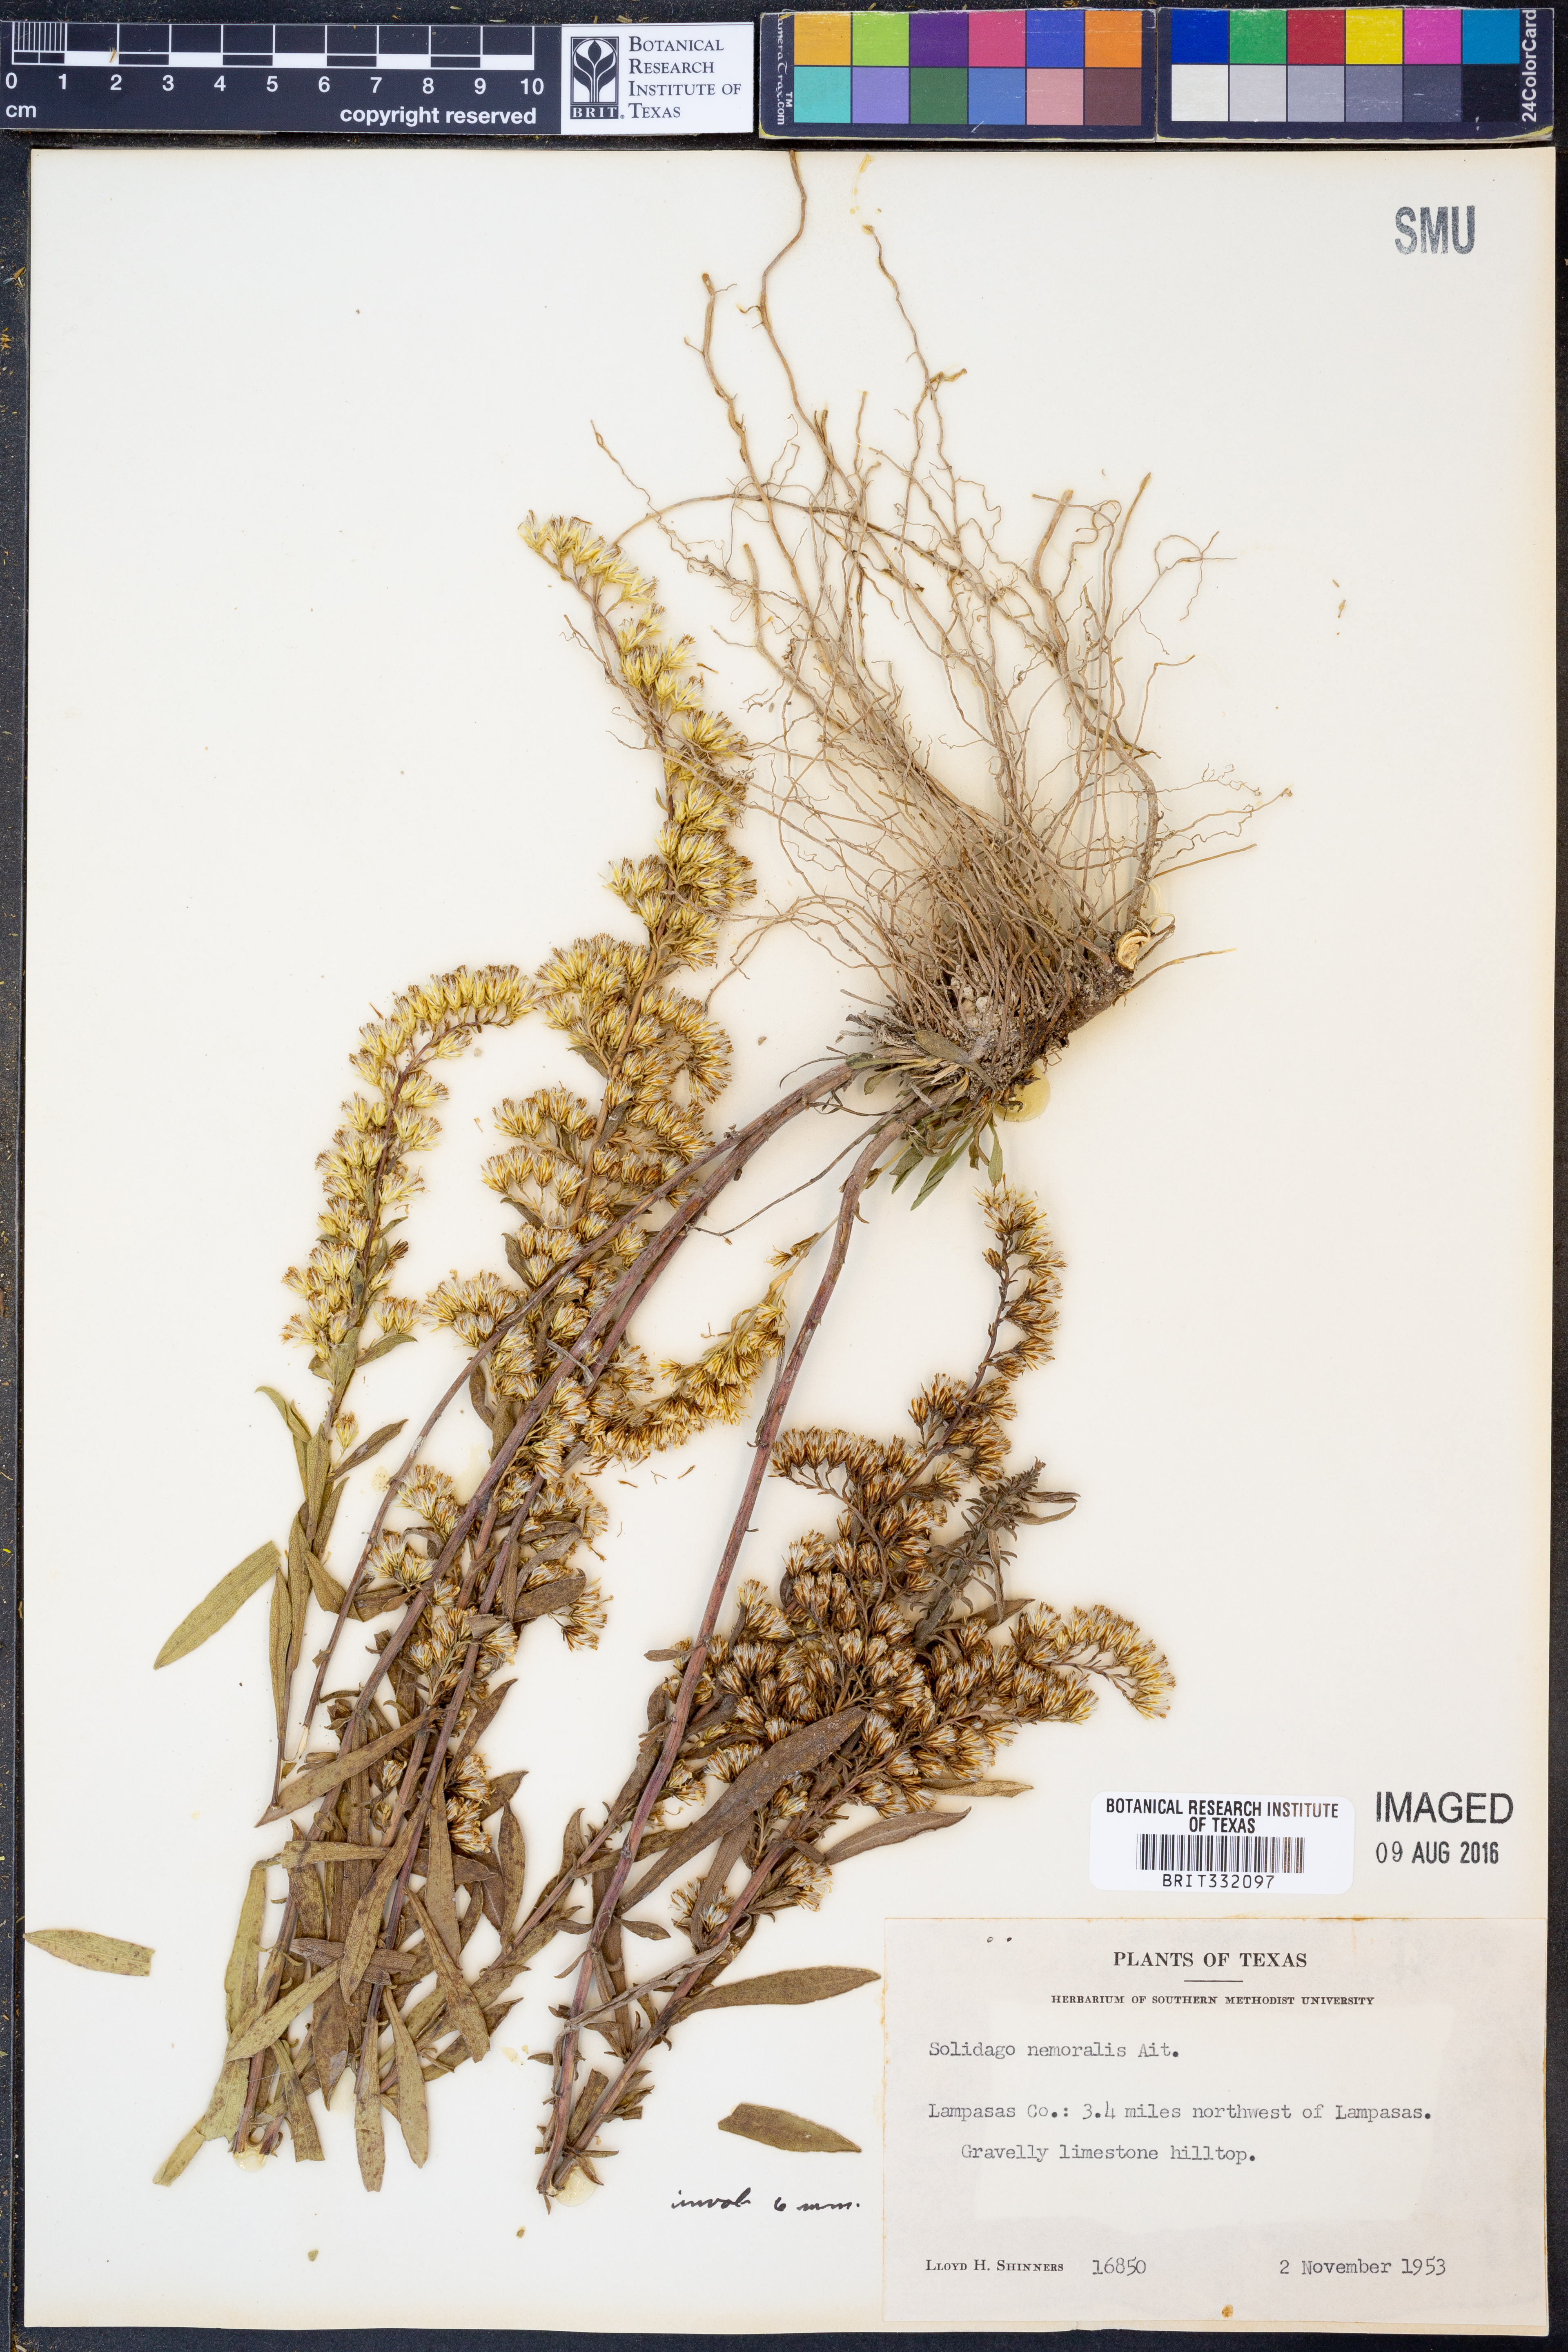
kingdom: Plantae
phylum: Tracheophyta
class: Magnoliopsida
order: Asterales
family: Asteraceae
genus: Solidago
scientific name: Solidago nemoralis
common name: Grey goldenrod
